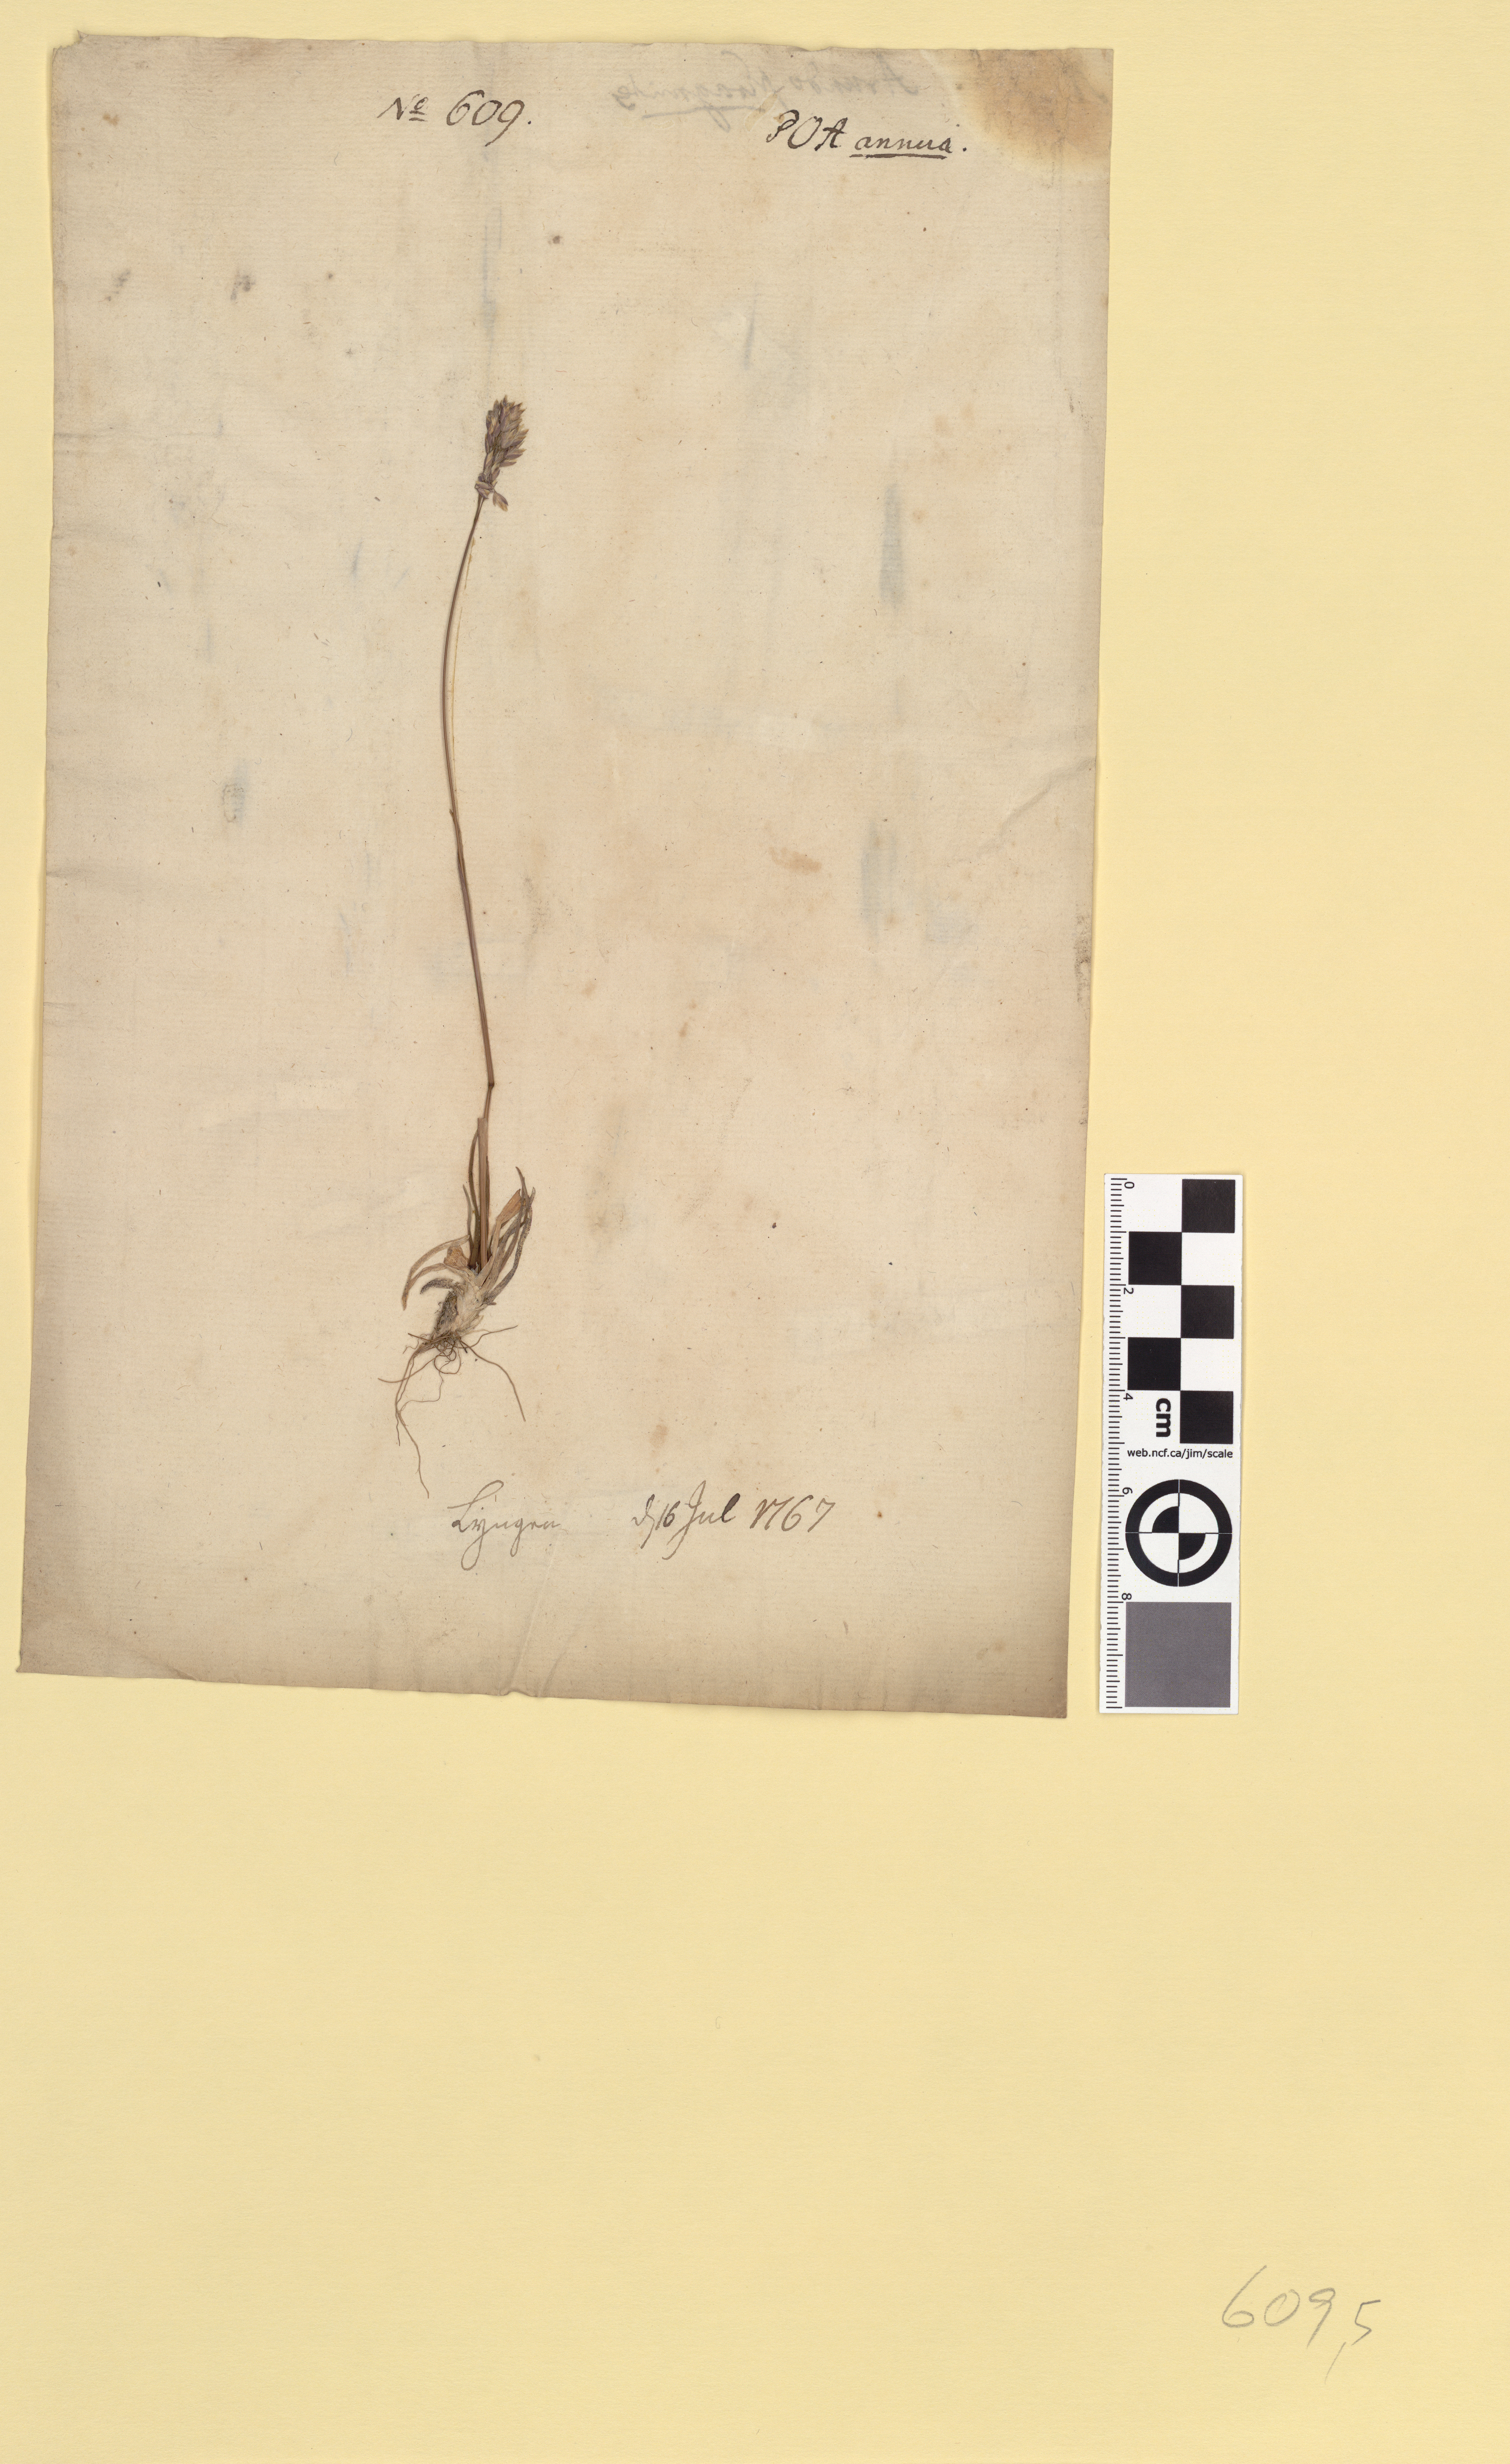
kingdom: Plantae
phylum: Tracheophyta
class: Liliopsida
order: Poales
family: Poaceae
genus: Poa
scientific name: Poa alpina
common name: Alpine bluegrass
